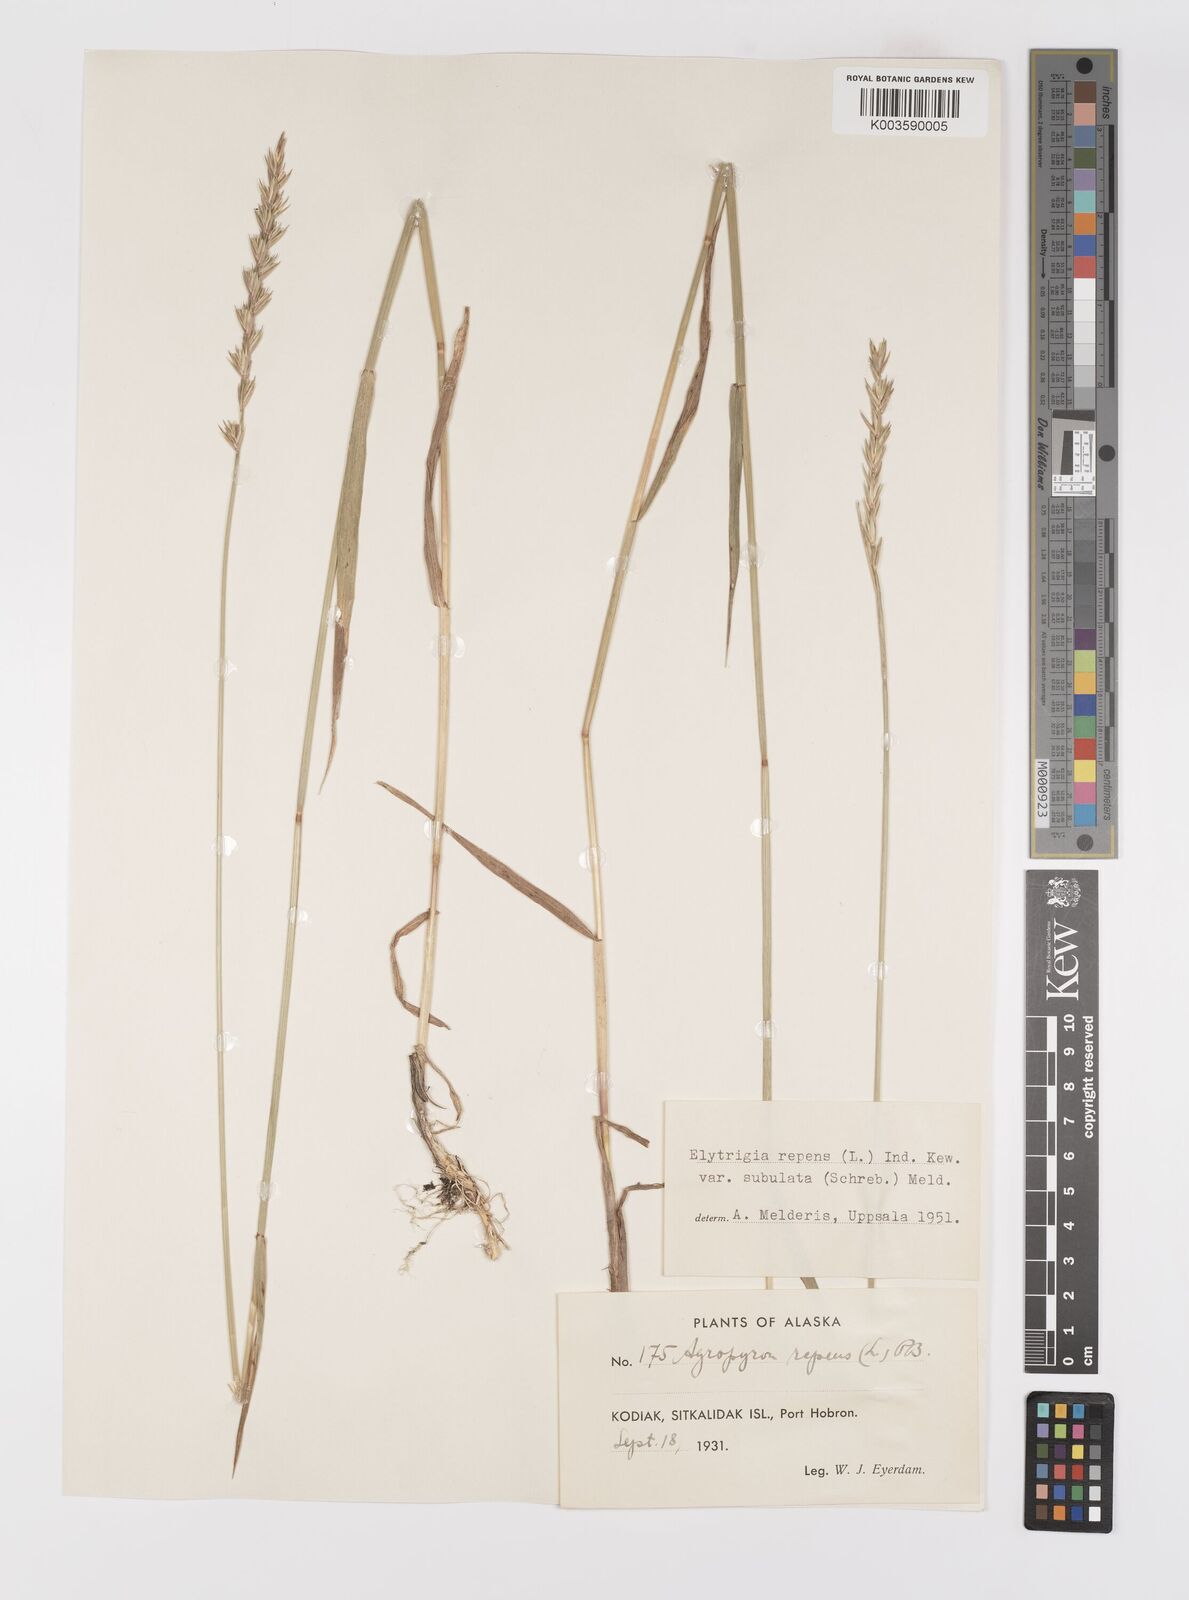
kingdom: Plantae
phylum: Tracheophyta
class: Liliopsida
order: Poales
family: Poaceae
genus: Elymus
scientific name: Elymus repens
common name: Quackgrass
